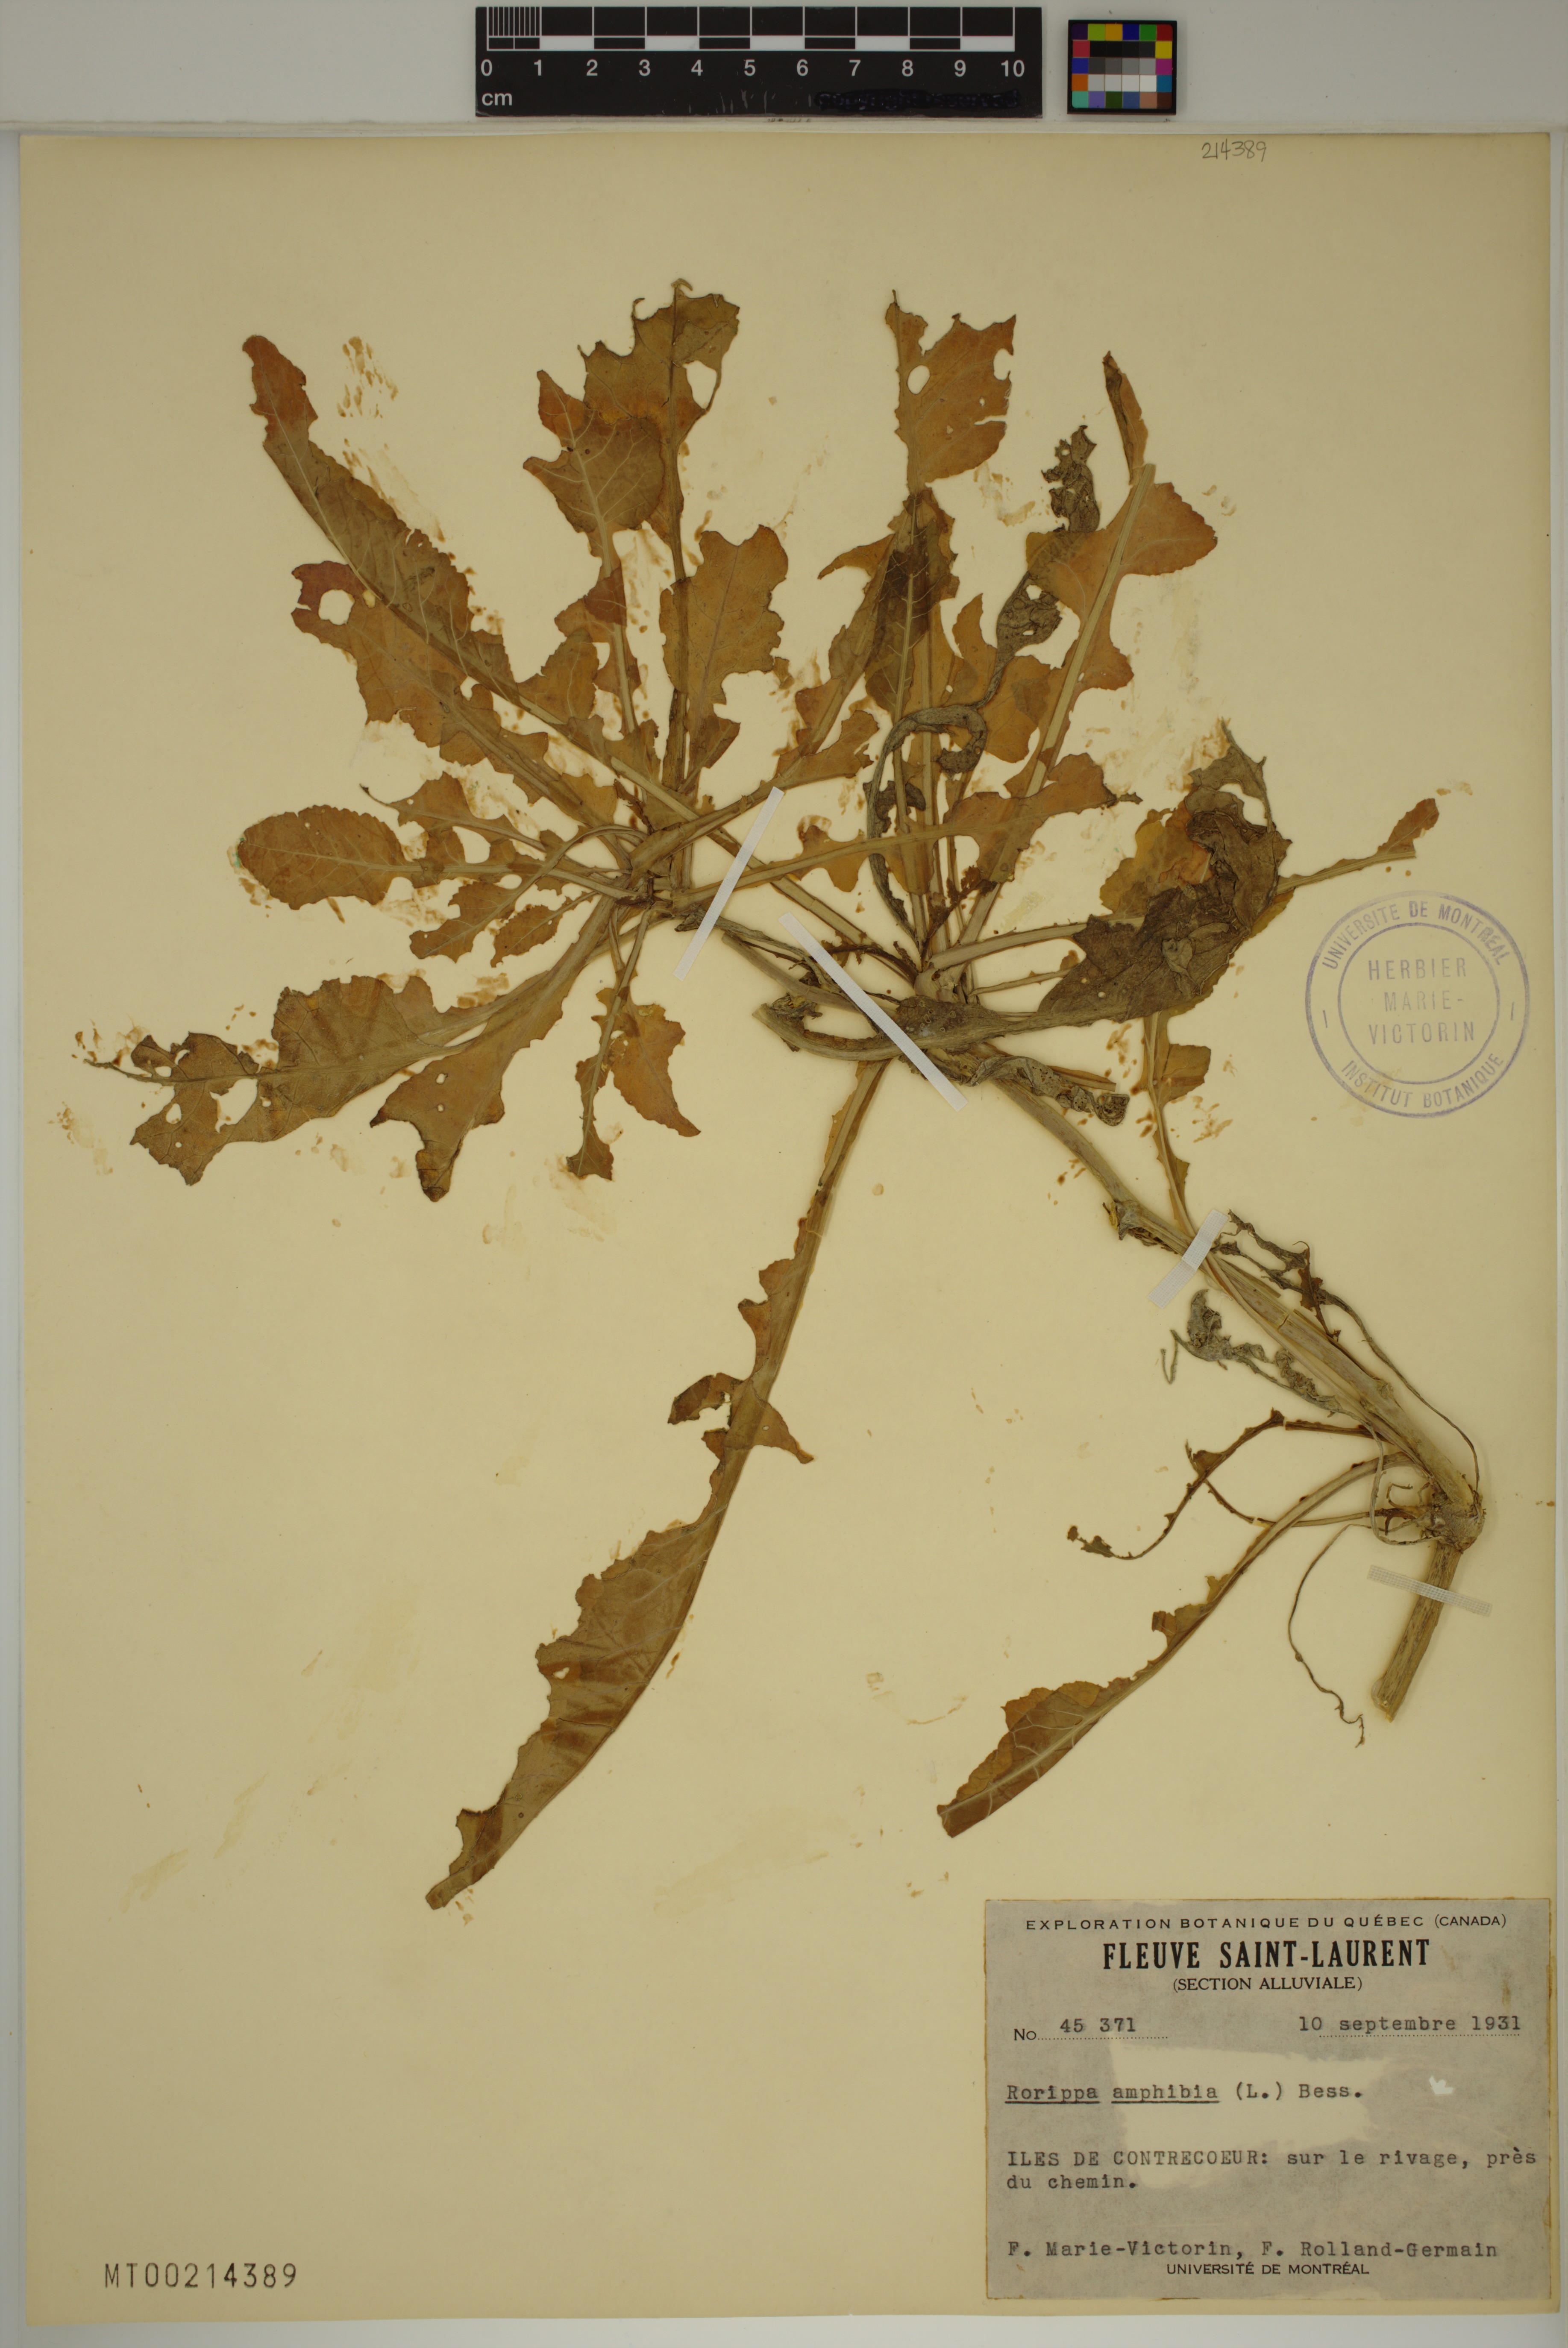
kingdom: Plantae
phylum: Tracheophyta
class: Magnoliopsida
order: Brassicales
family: Brassicaceae
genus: Rorippa
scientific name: Rorippa amphibia
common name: Great yellow-cress
